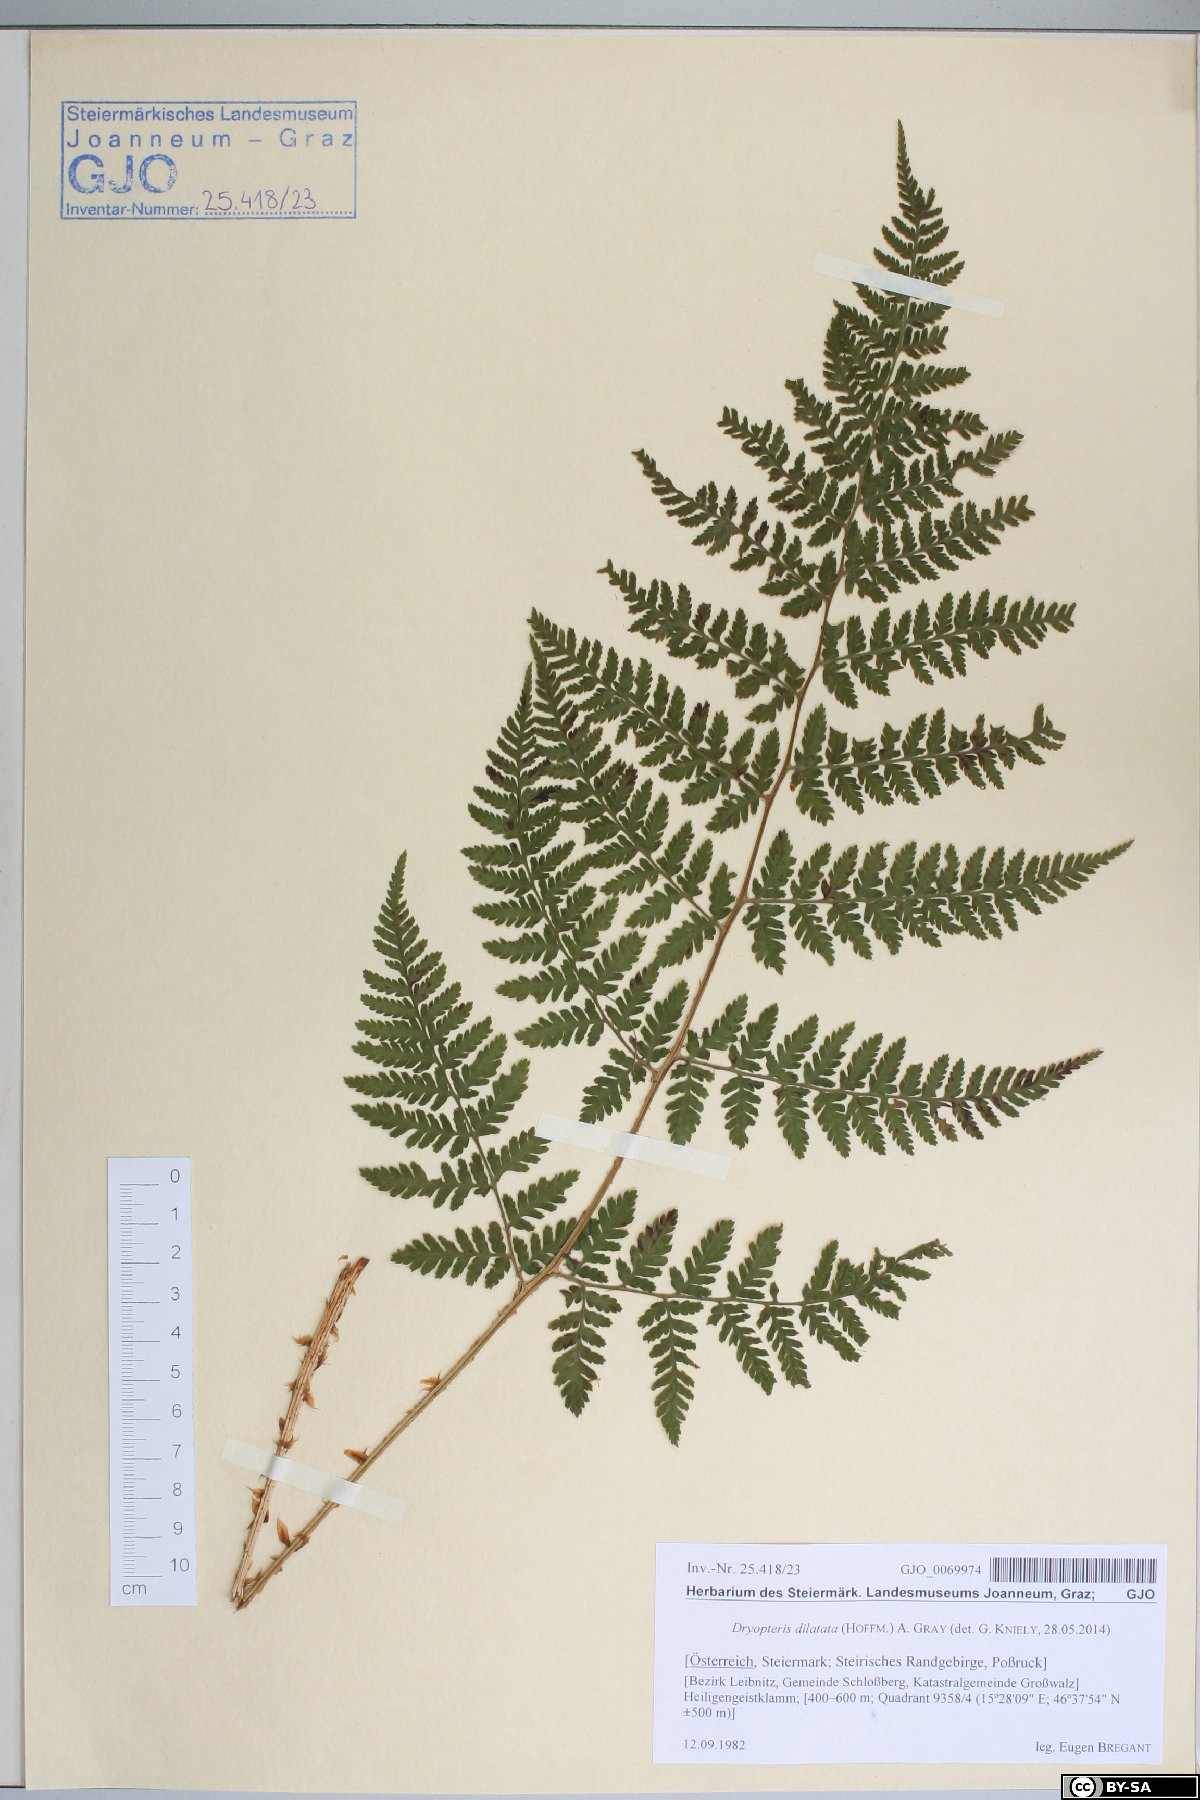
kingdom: Plantae
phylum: Tracheophyta
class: Polypodiopsida
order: Polypodiales
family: Dryopteridaceae
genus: Dryopteris
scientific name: Dryopteris dilatata
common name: Broad buckler-fern
